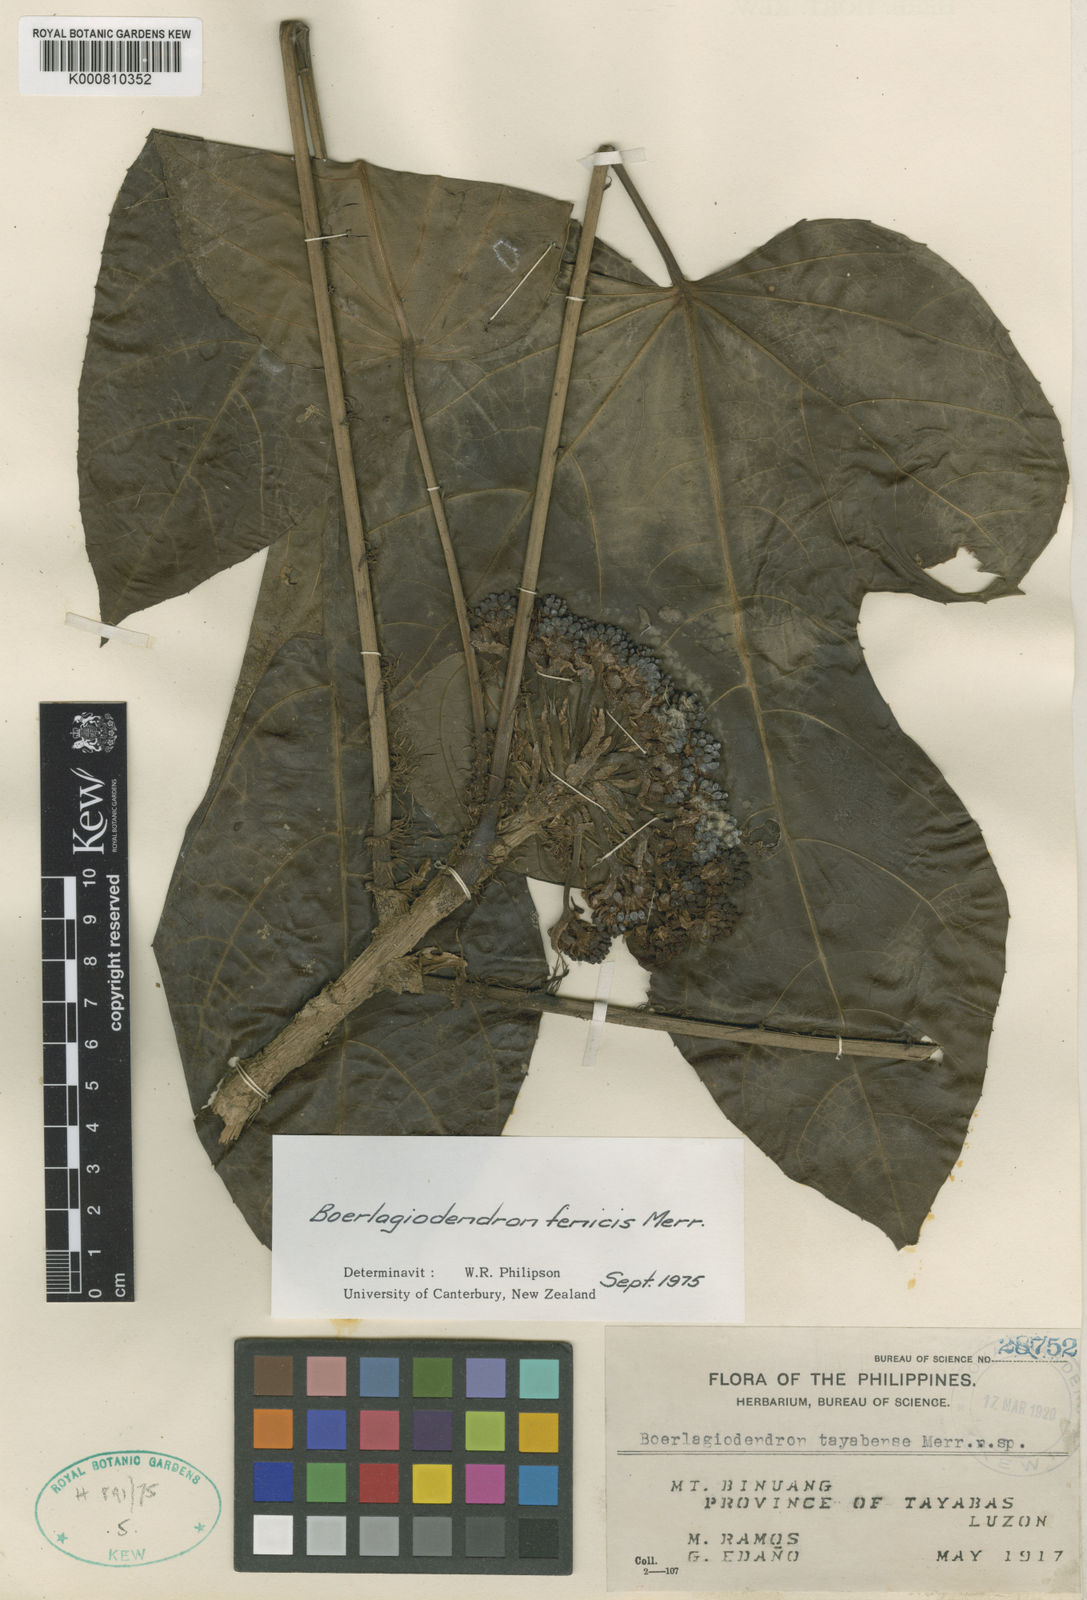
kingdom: Plantae
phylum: Tracheophyta
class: Magnoliopsida
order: Apiales
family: Araliaceae
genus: Osmoxylon
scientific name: Osmoxylon fenicis
